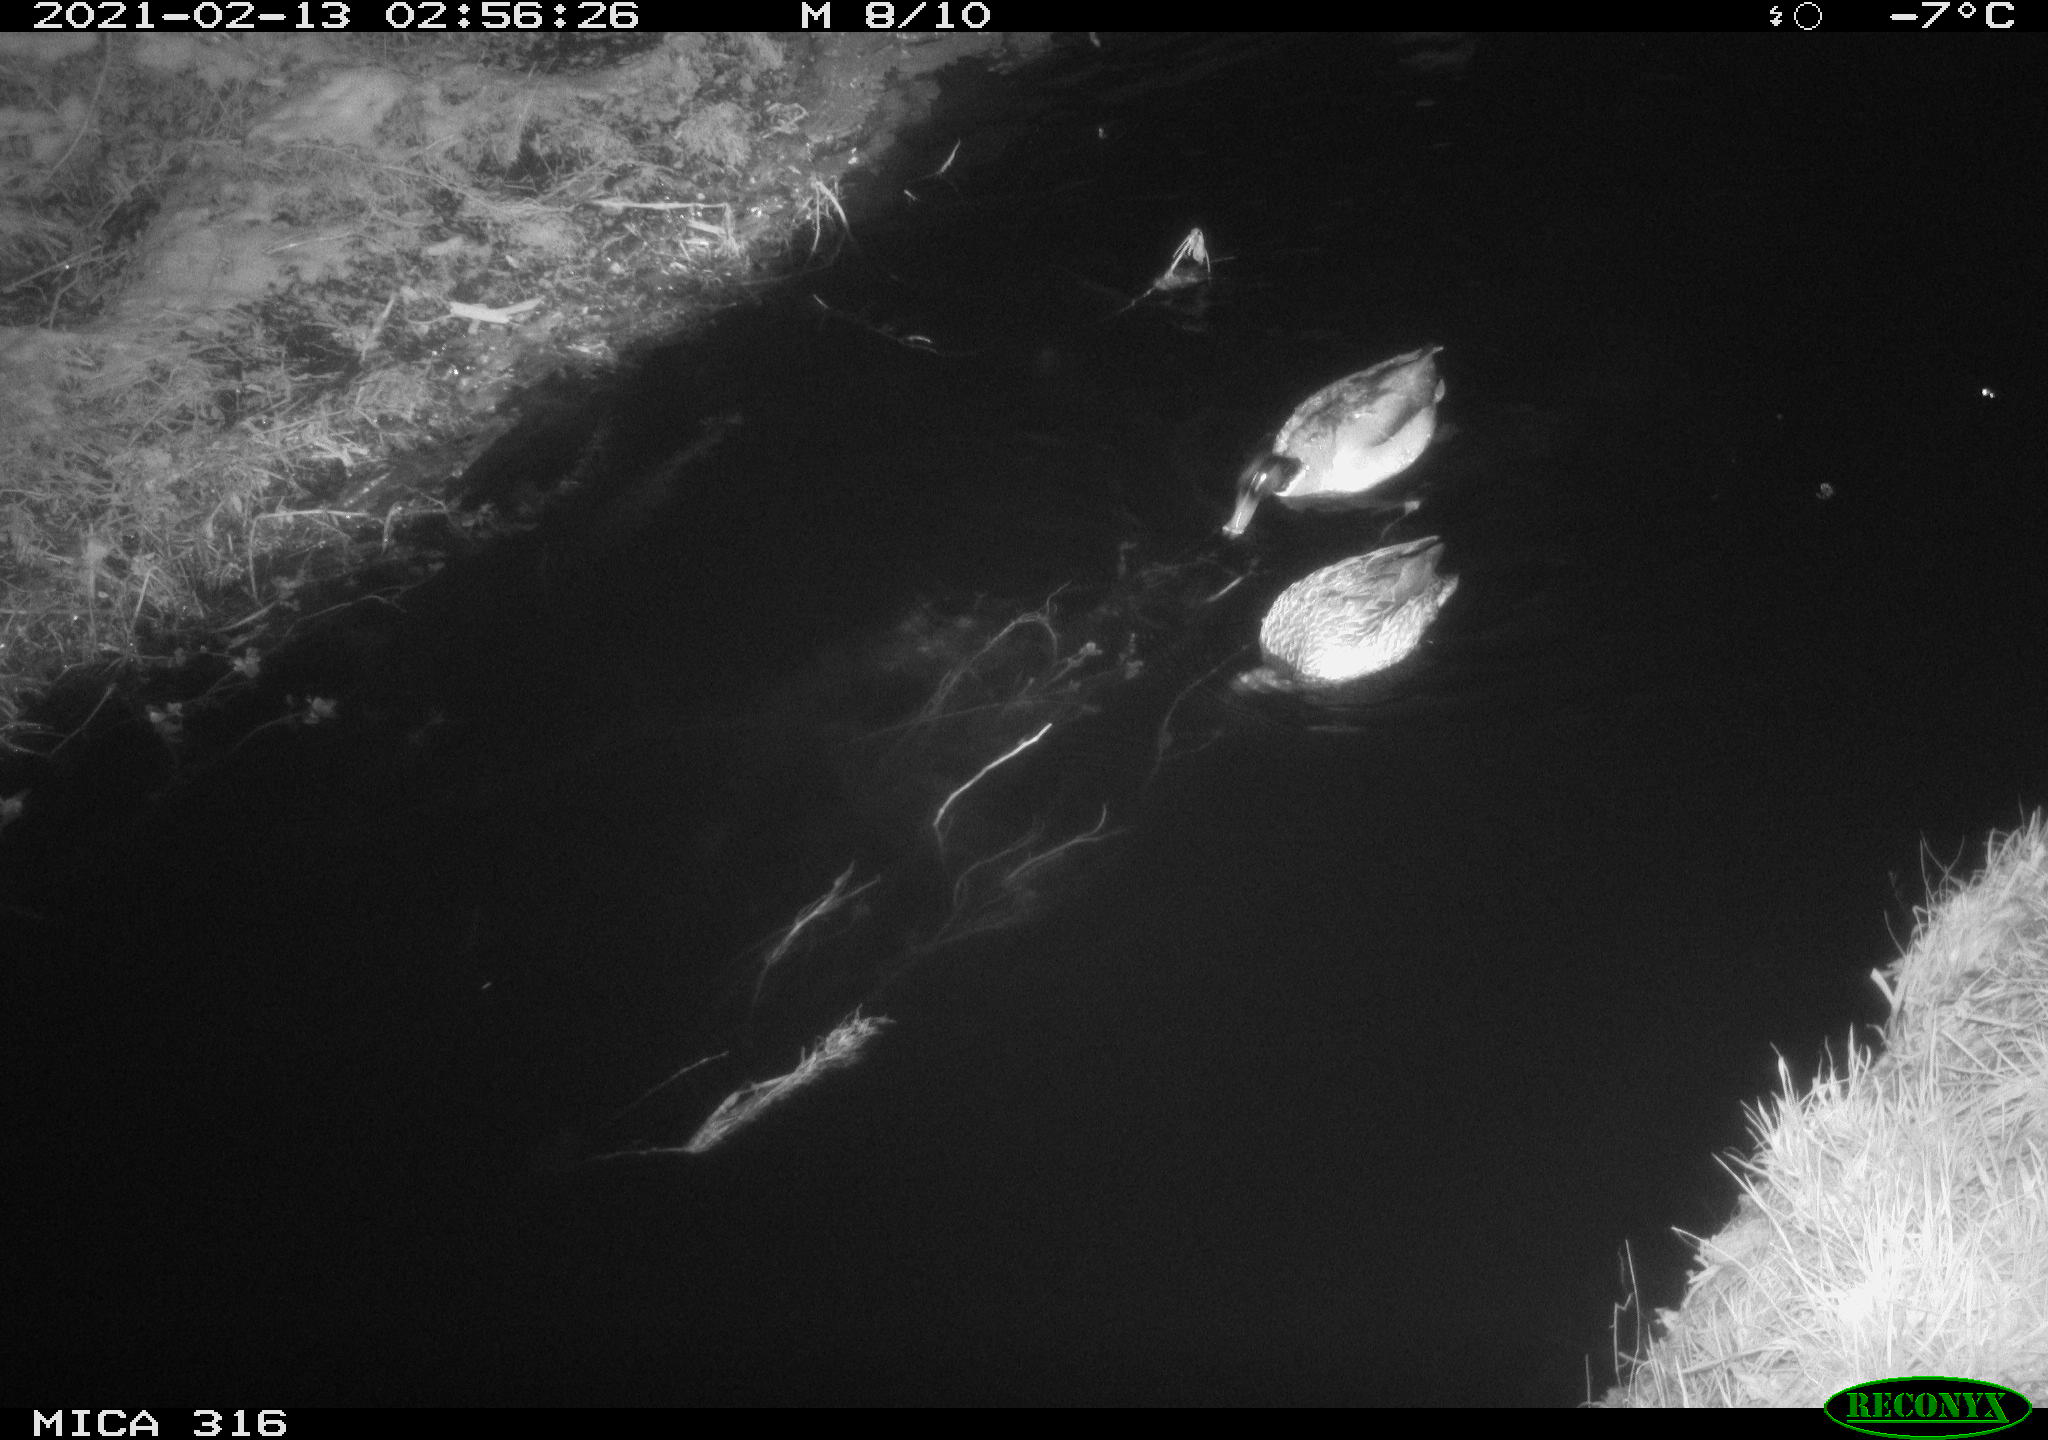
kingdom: Animalia
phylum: Chordata
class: Aves
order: Anseriformes
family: Anatidae
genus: Anas
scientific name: Anas platyrhynchos
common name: Mallard
